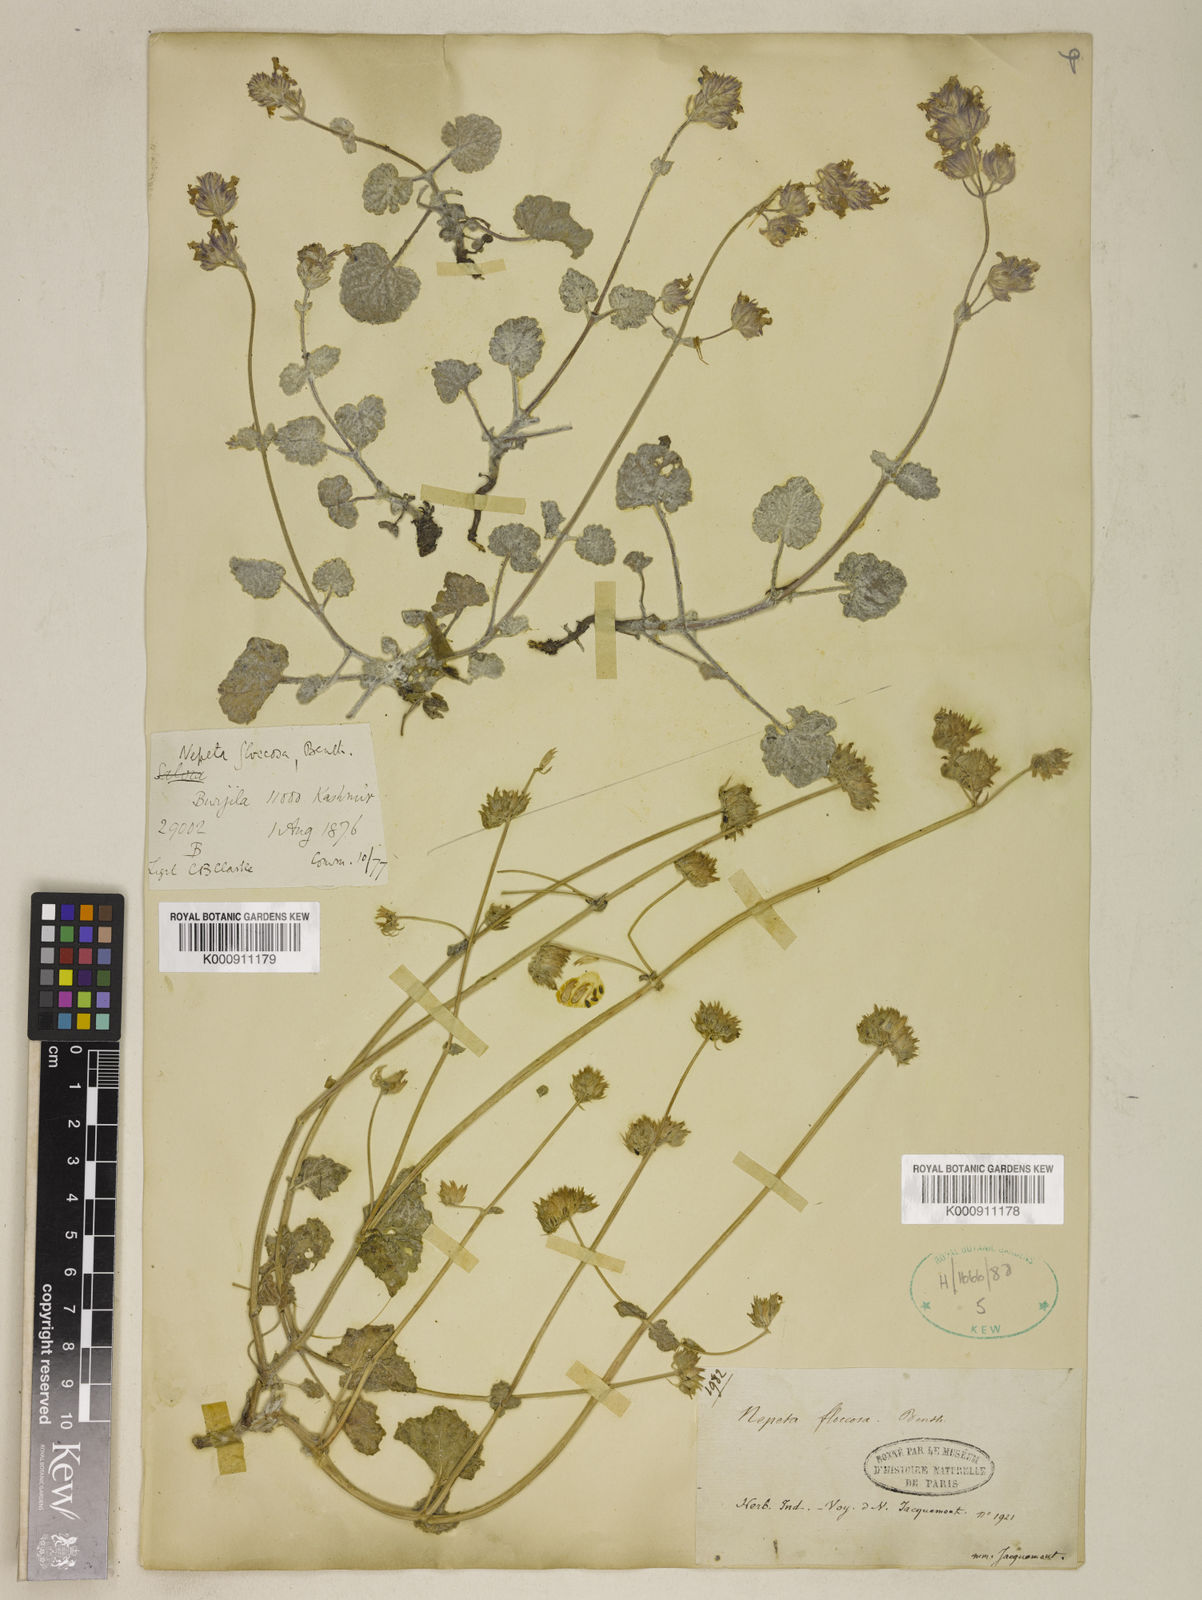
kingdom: Plantae
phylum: Tracheophyta
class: Magnoliopsida
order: Lamiales
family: Lamiaceae
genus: Nepeta
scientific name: Nepeta floccosa
